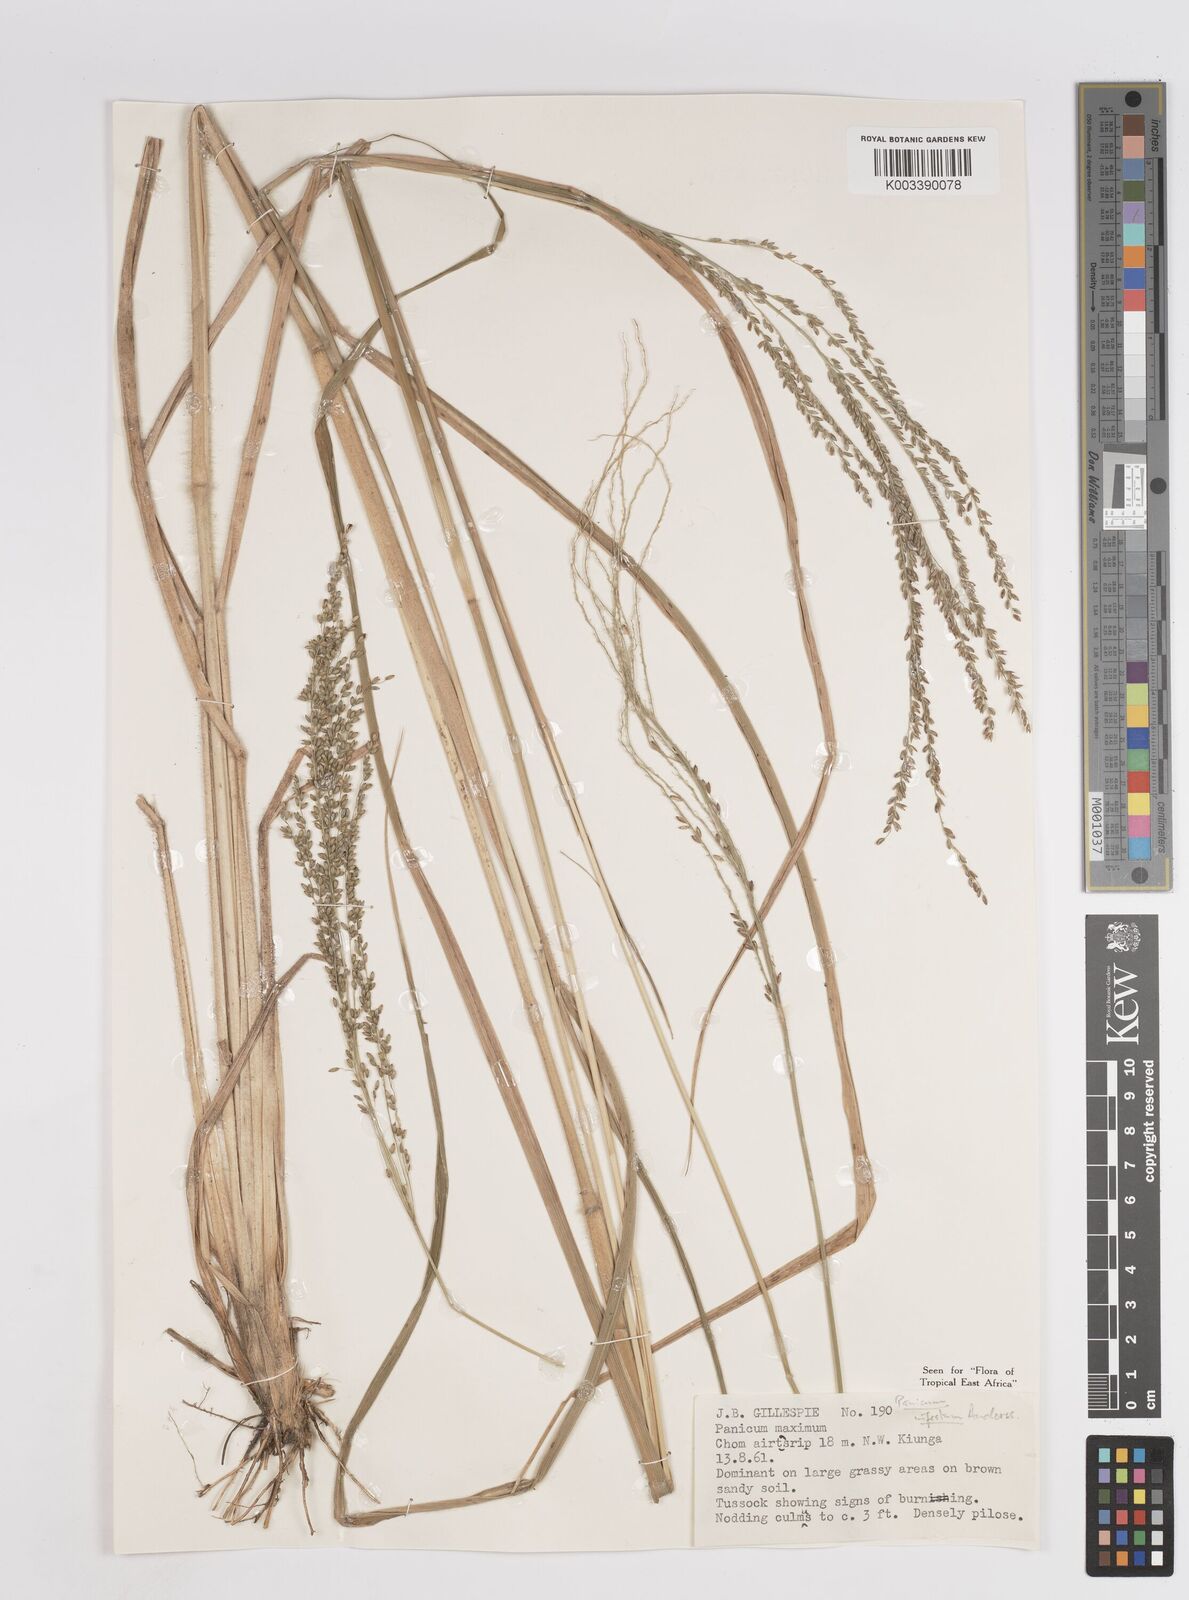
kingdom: Plantae
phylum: Tracheophyta
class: Liliopsida
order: Poales
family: Poaceae
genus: Megathyrsus
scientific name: Megathyrsus infestus
